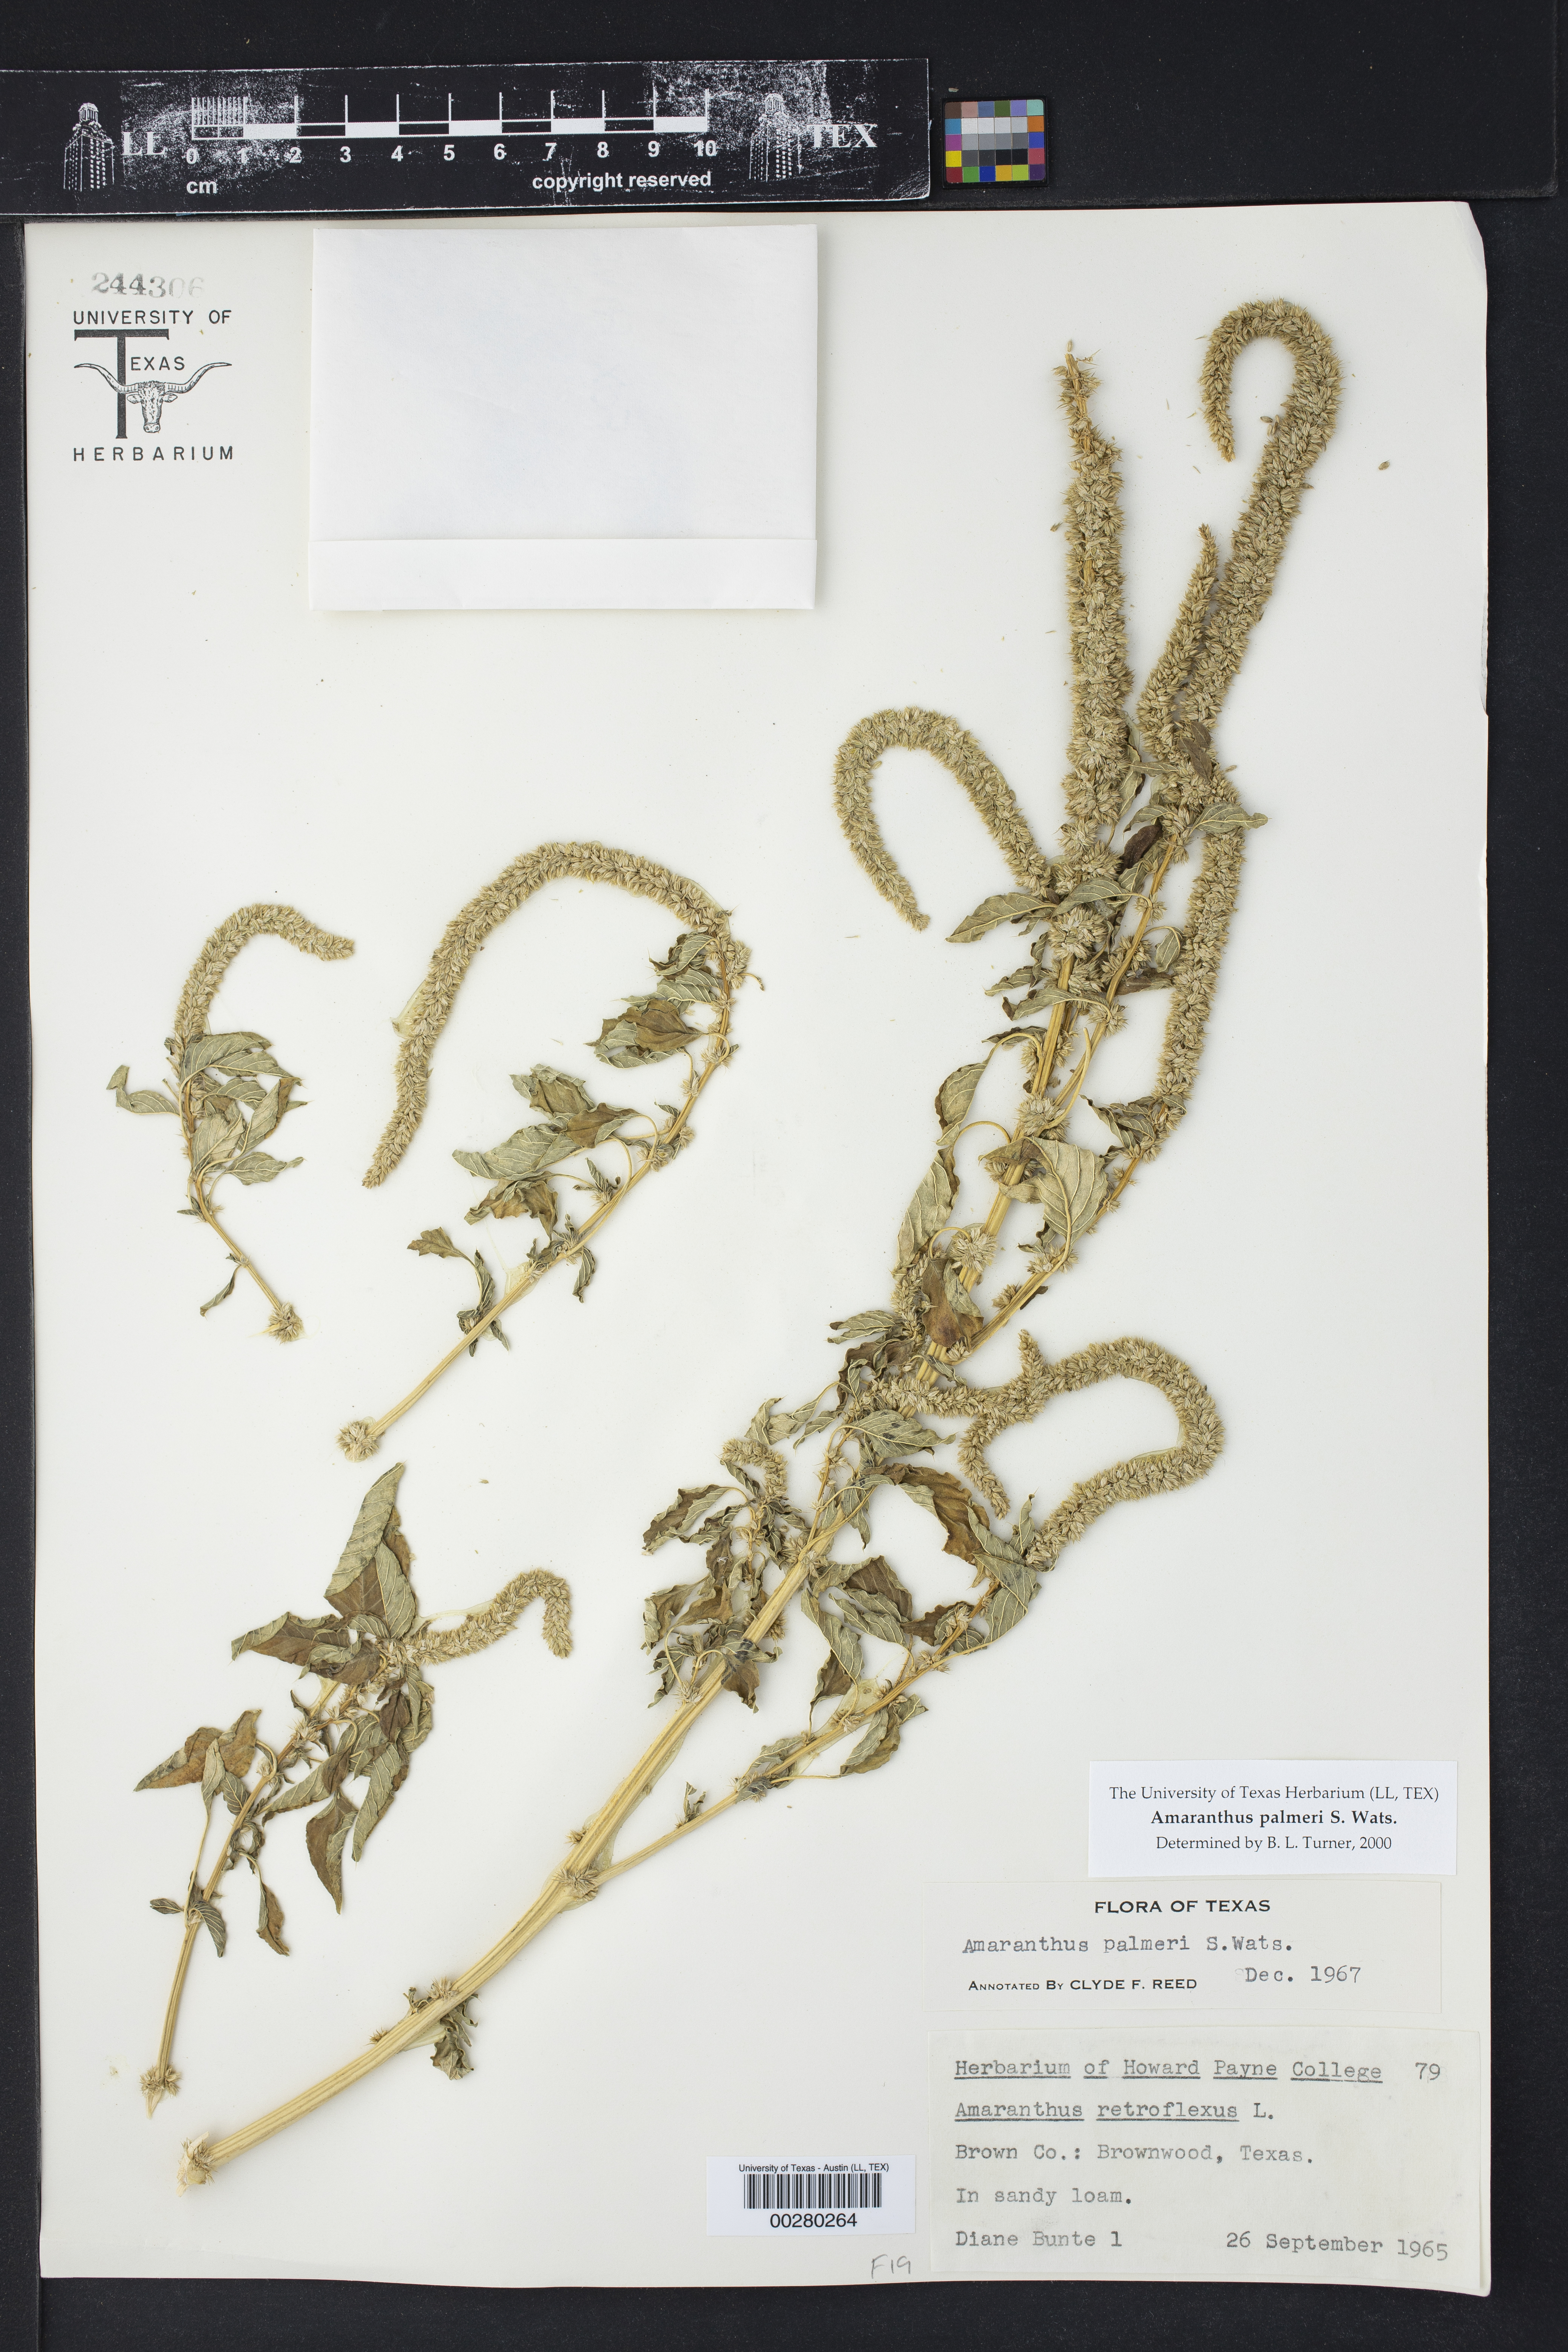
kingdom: Plantae
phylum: Tracheophyta
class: Magnoliopsida
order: Caryophyllales
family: Amaranthaceae
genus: Amaranthus
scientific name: Amaranthus palmeri
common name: Dioecious amaranth
